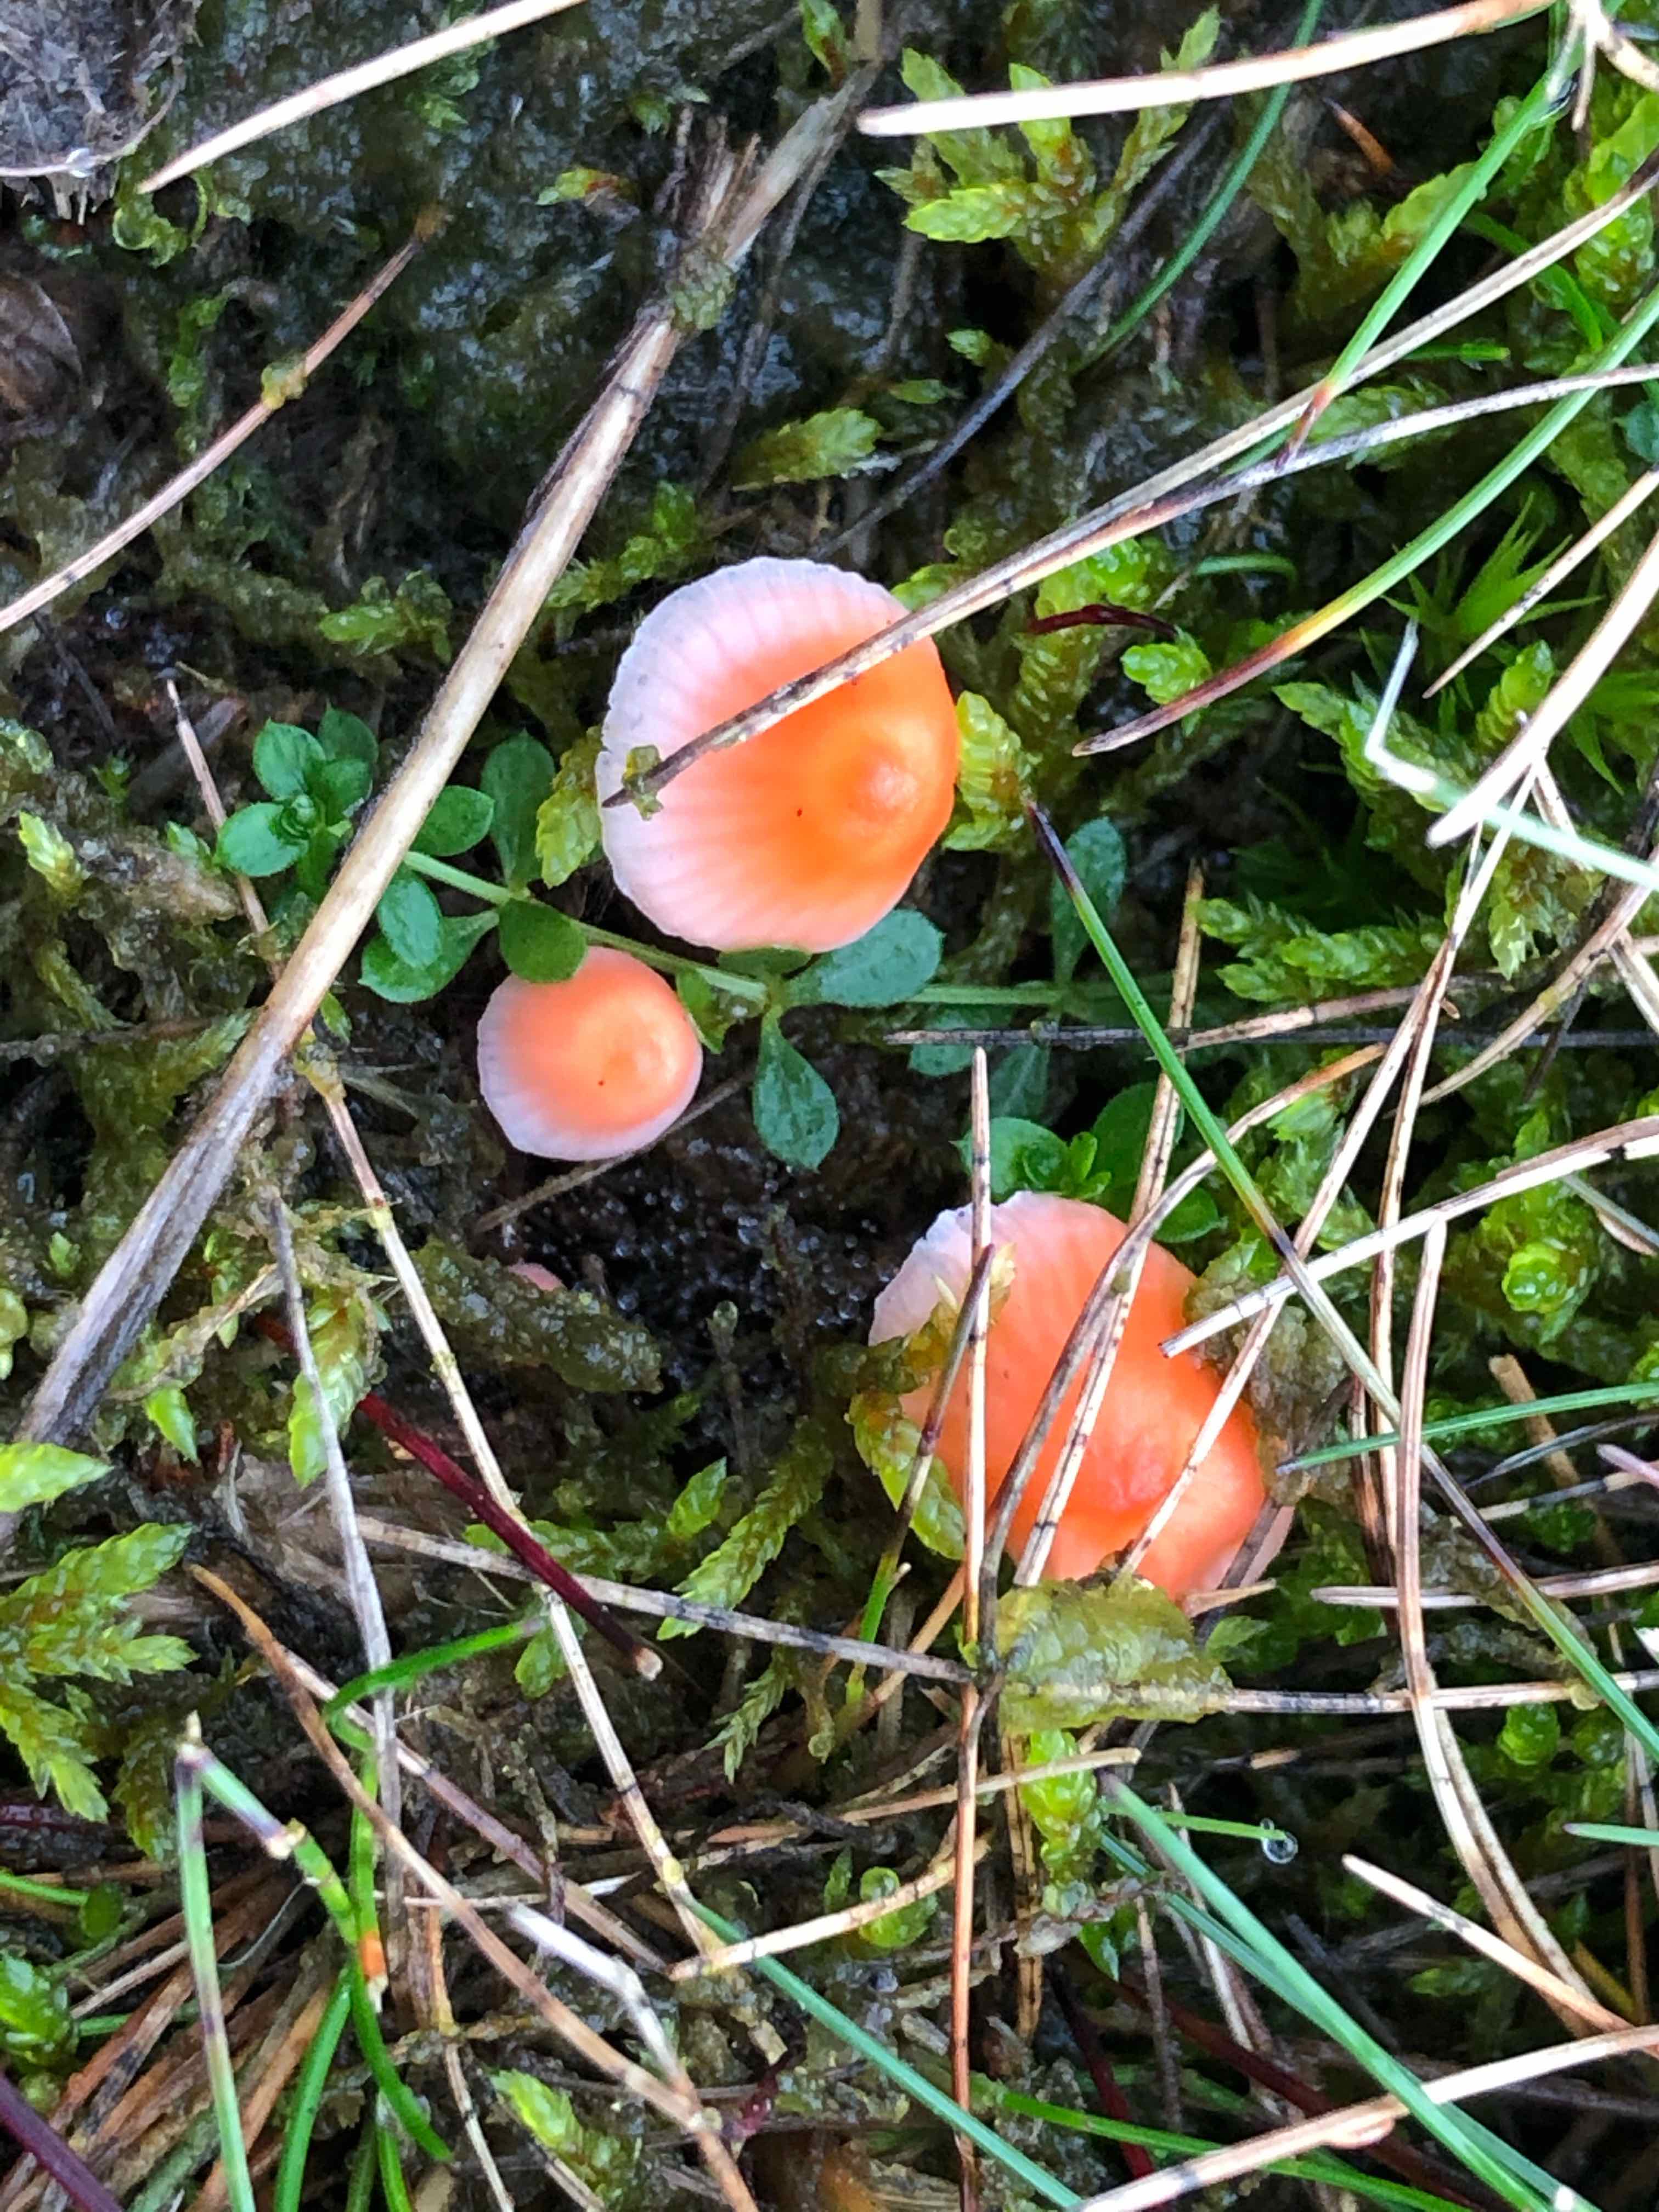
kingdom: Fungi
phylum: Basidiomycota
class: Agaricomycetes
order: Agaricales
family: Mycenaceae
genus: Atheniella
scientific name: Atheniella adonis
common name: rønnerød huesvamp
